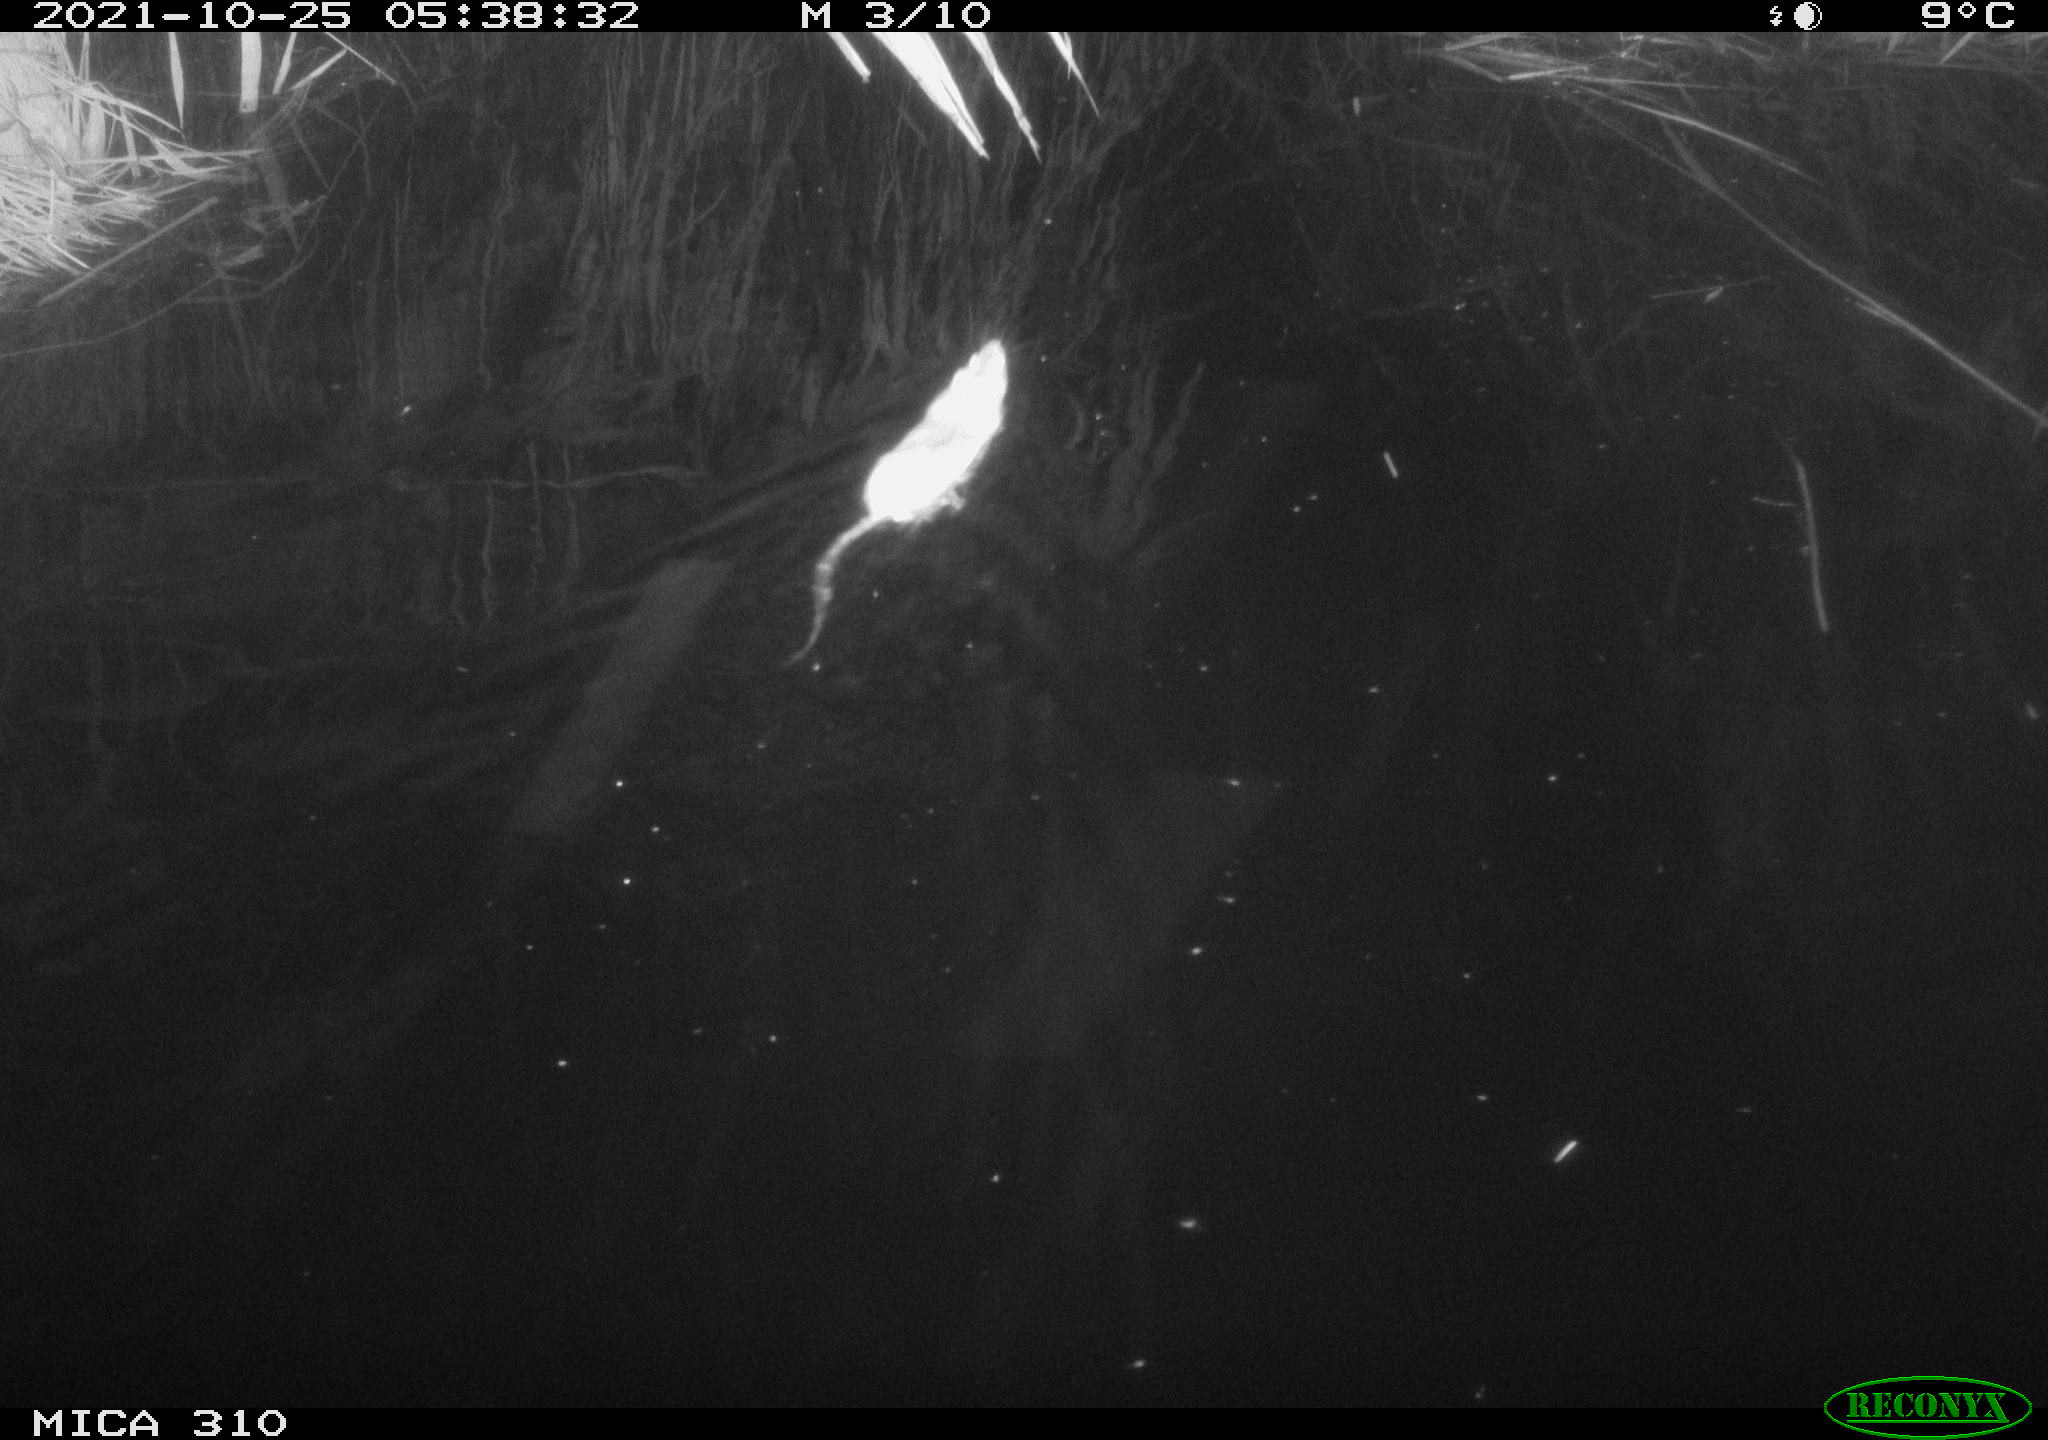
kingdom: Animalia
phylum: Chordata
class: Mammalia
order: Rodentia
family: Muridae
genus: Rattus
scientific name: Rattus norvegicus
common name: Brown rat
